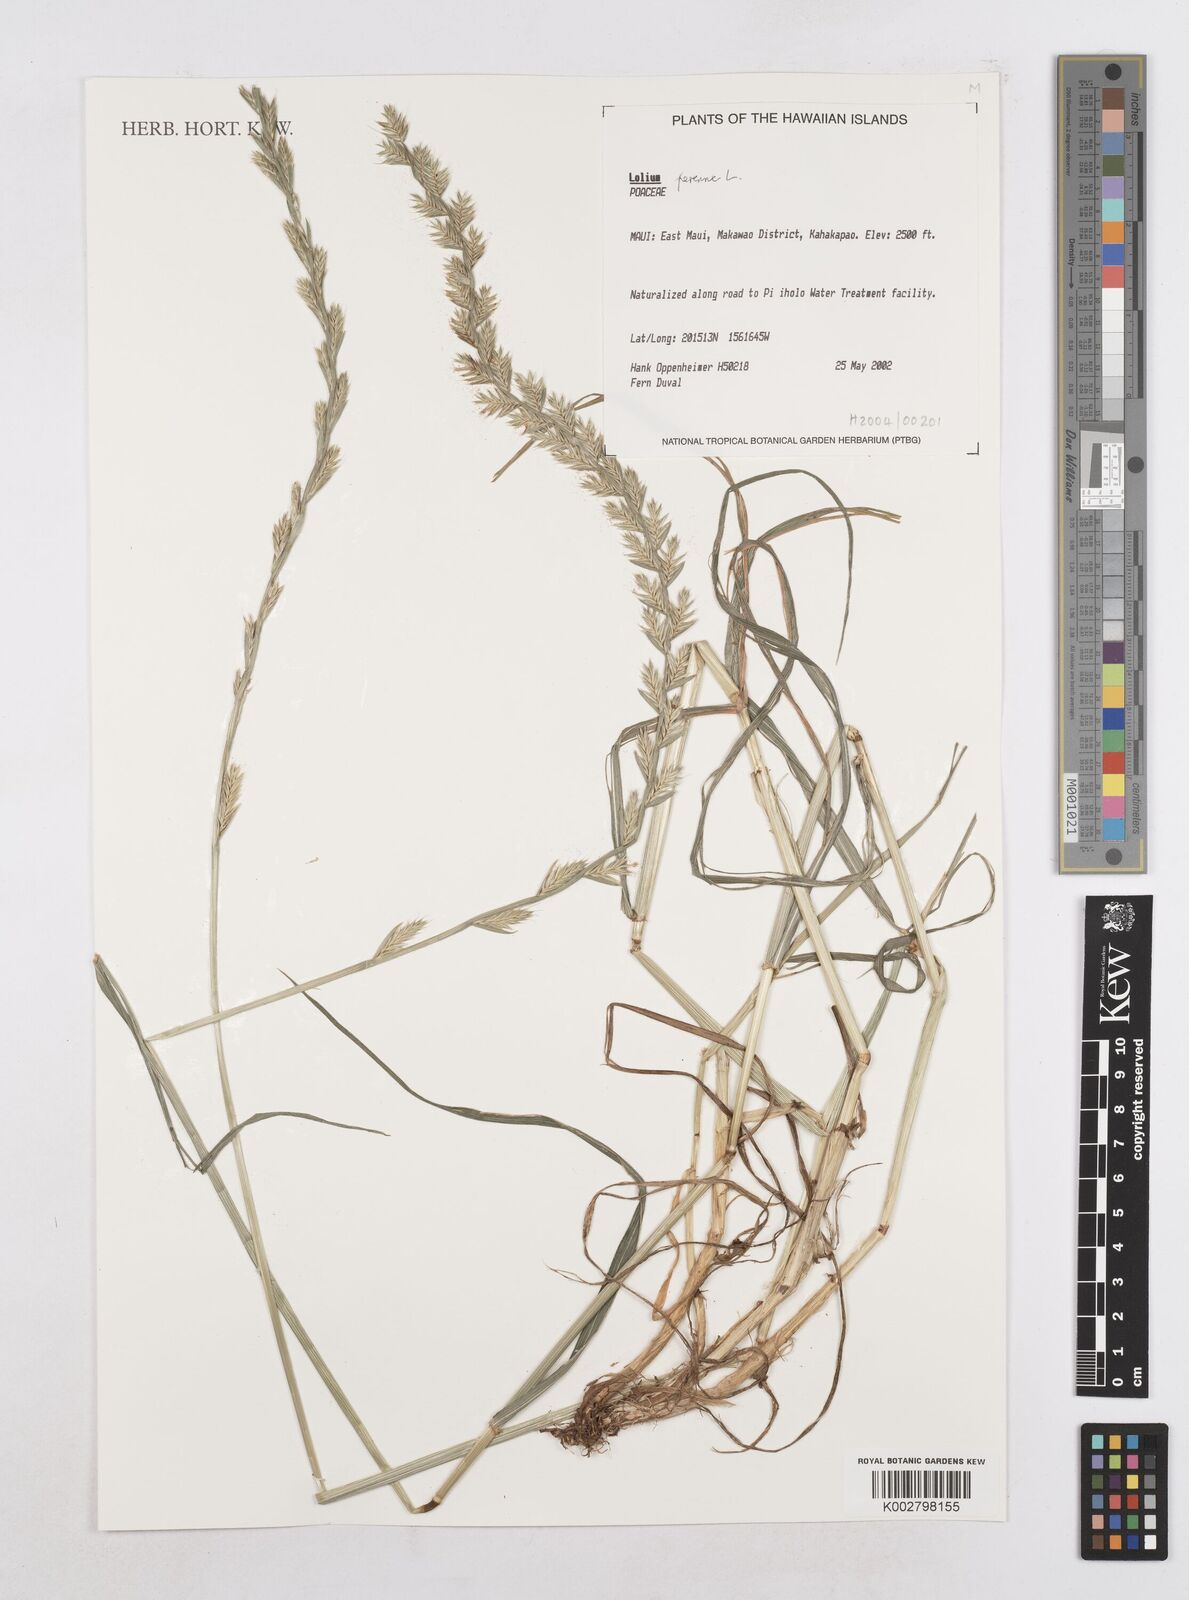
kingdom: Plantae
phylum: Tracheophyta
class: Liliopsida
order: Poales
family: Poaceae
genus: Lolium
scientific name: Lolium perenne
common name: Perennial ryegrass
